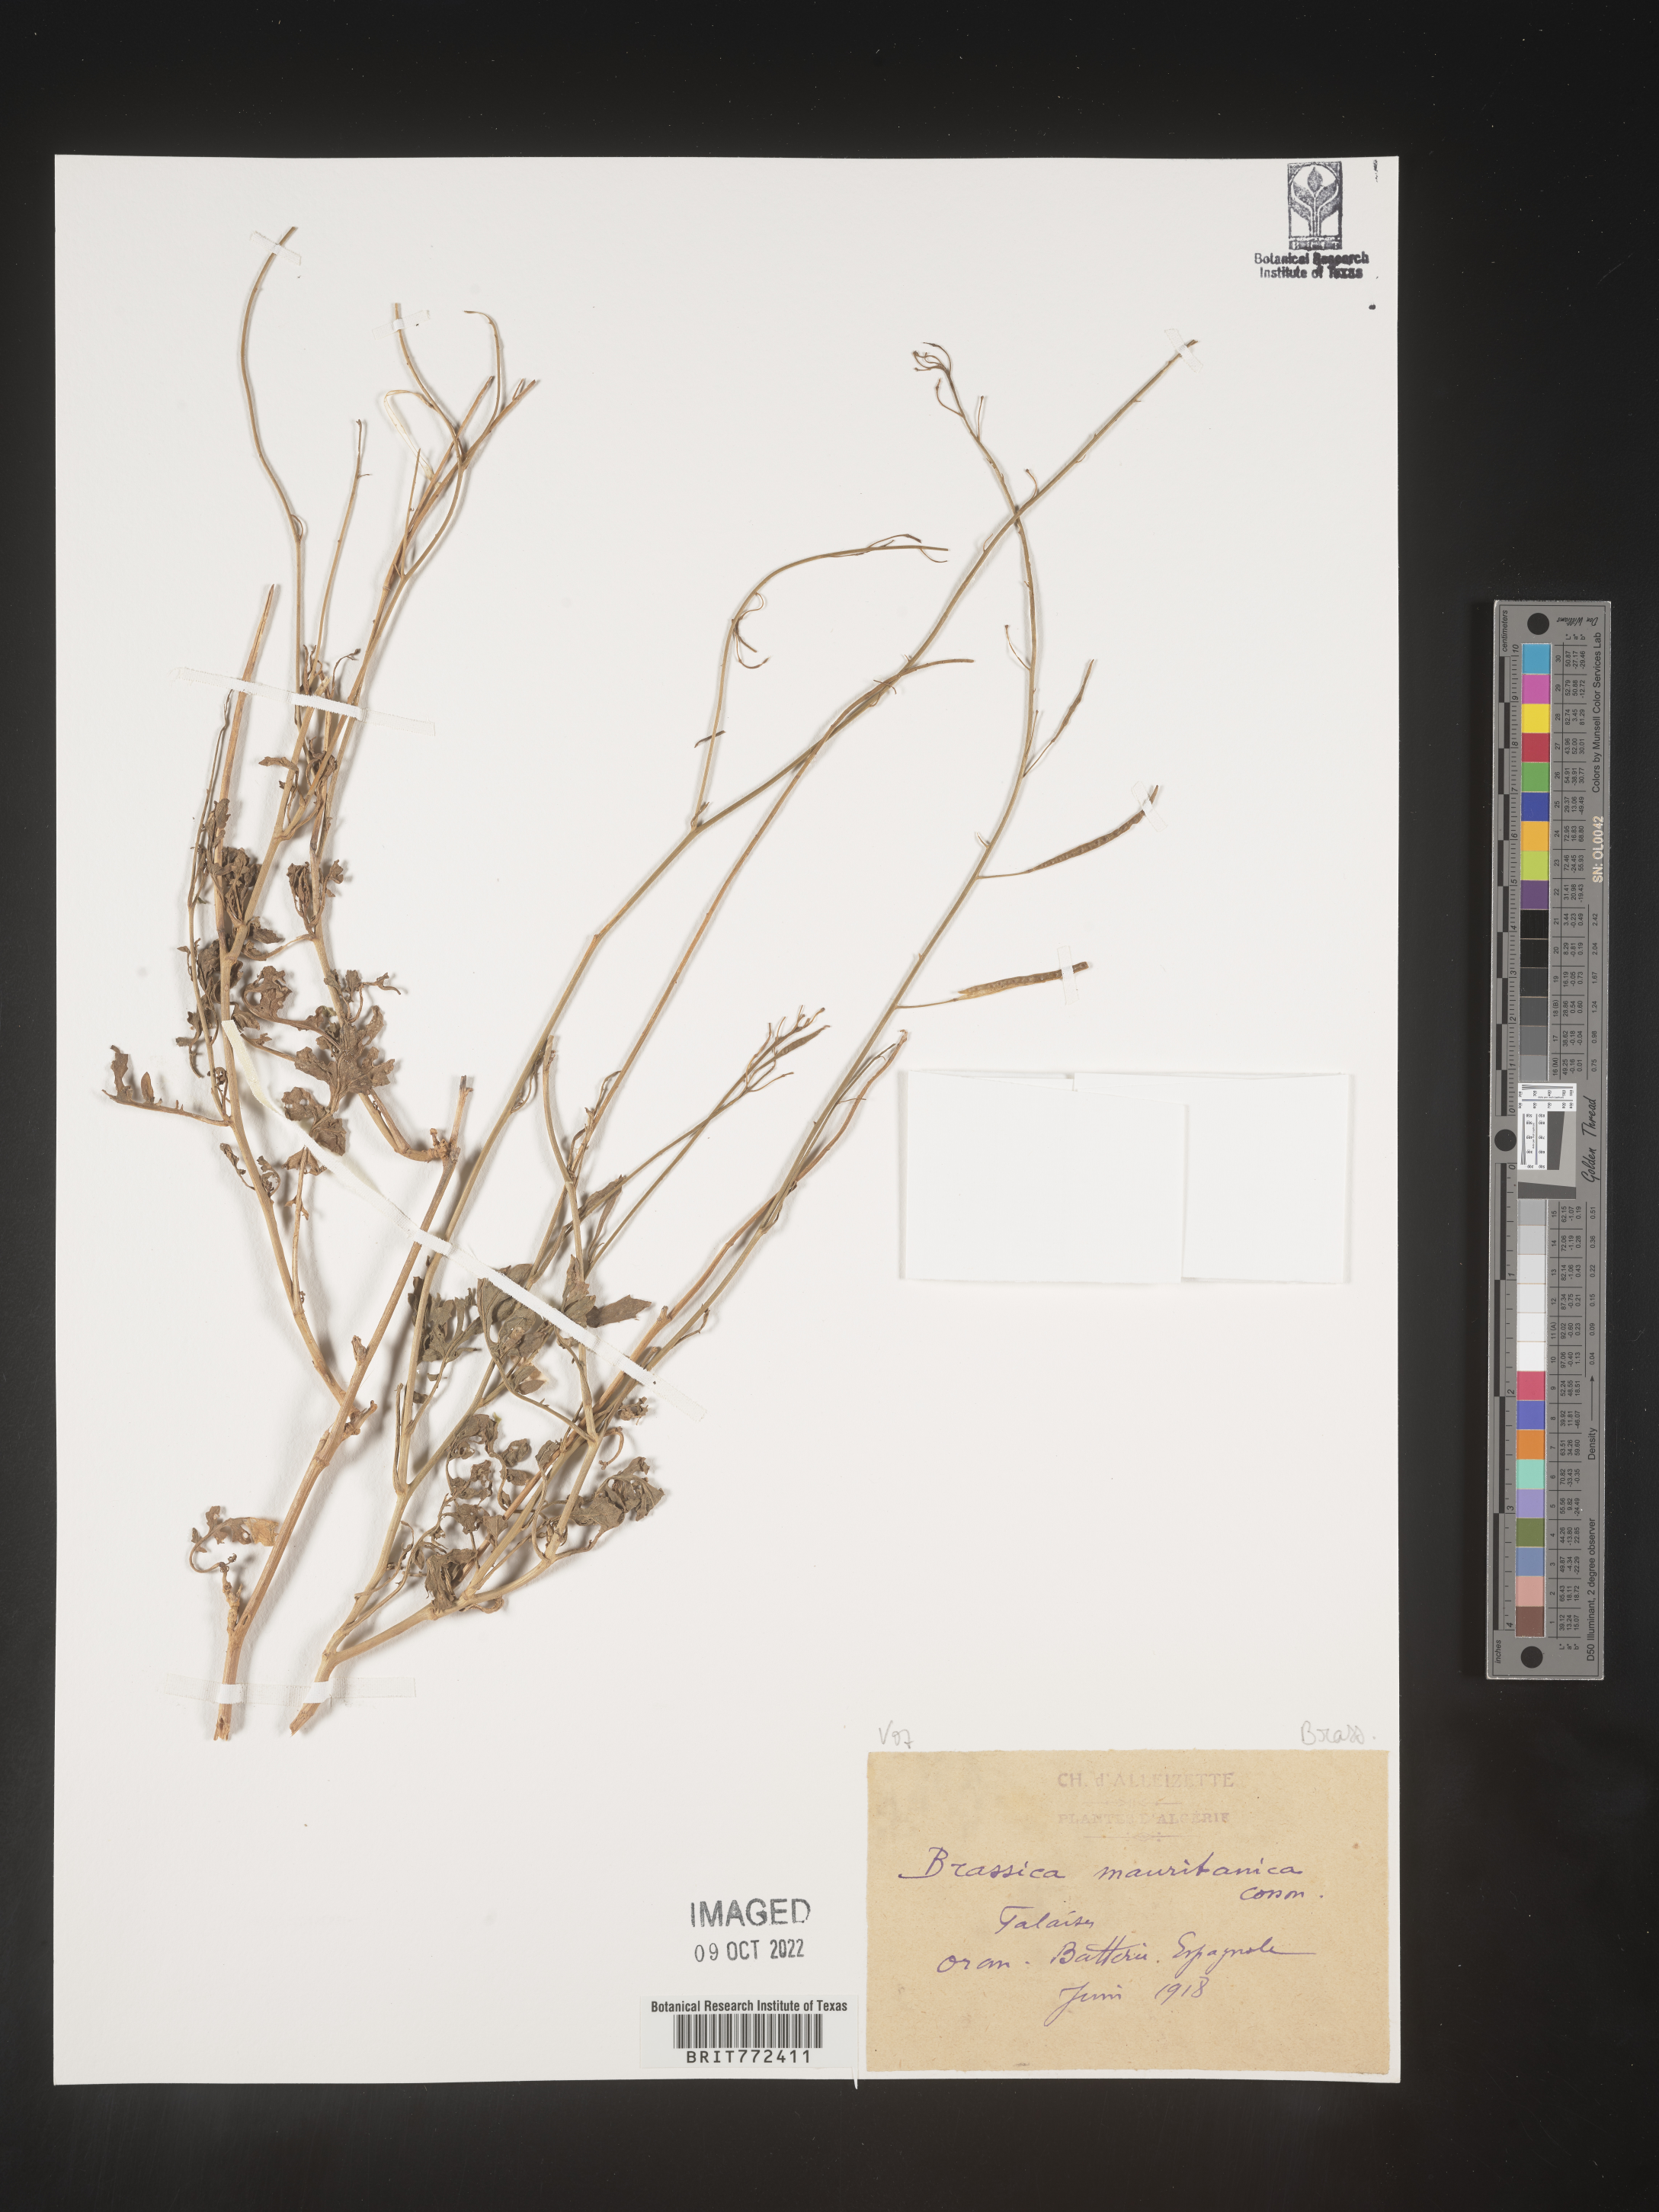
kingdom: Plantae
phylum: Tracheophyta
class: Magnoliopsida
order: Brassicales
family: Brassicaceae
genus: Brassica
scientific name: Brassica
